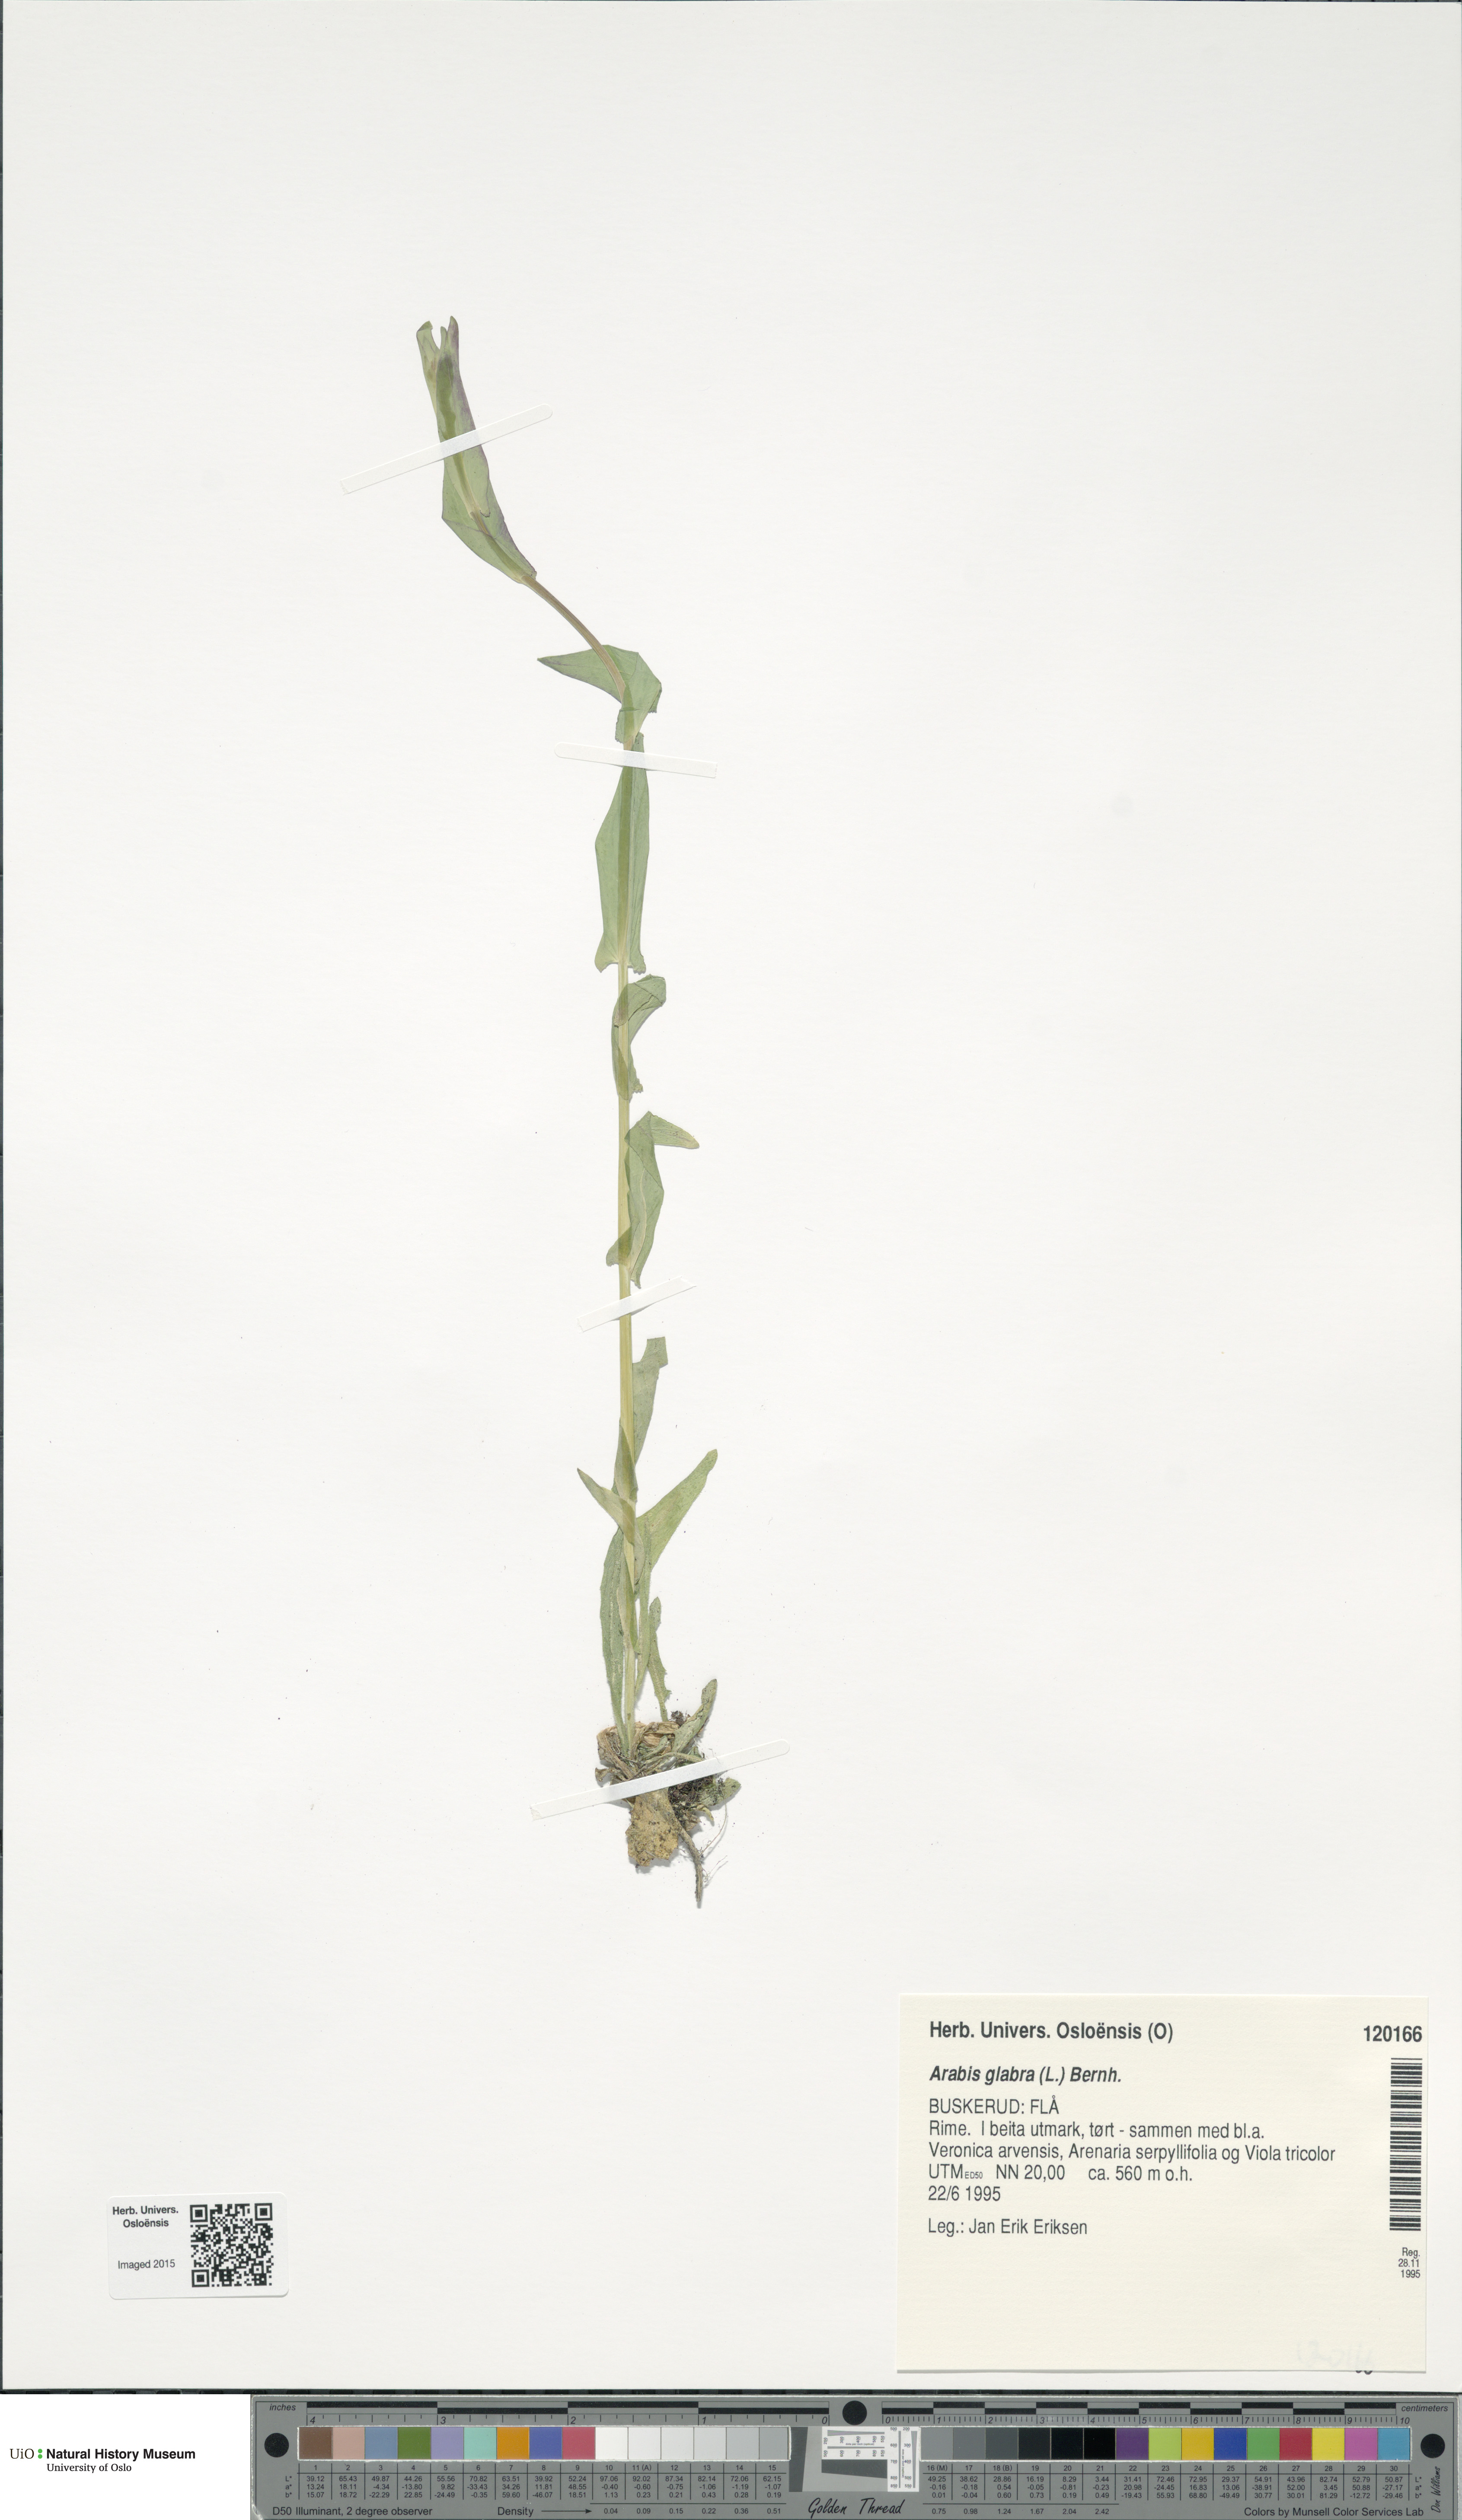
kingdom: Plantae
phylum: Tracheophyta
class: Magnoliopsida
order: Brassicales
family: Brassicaceae
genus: Turritis
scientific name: Turritis glabra
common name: Tower rockcress
